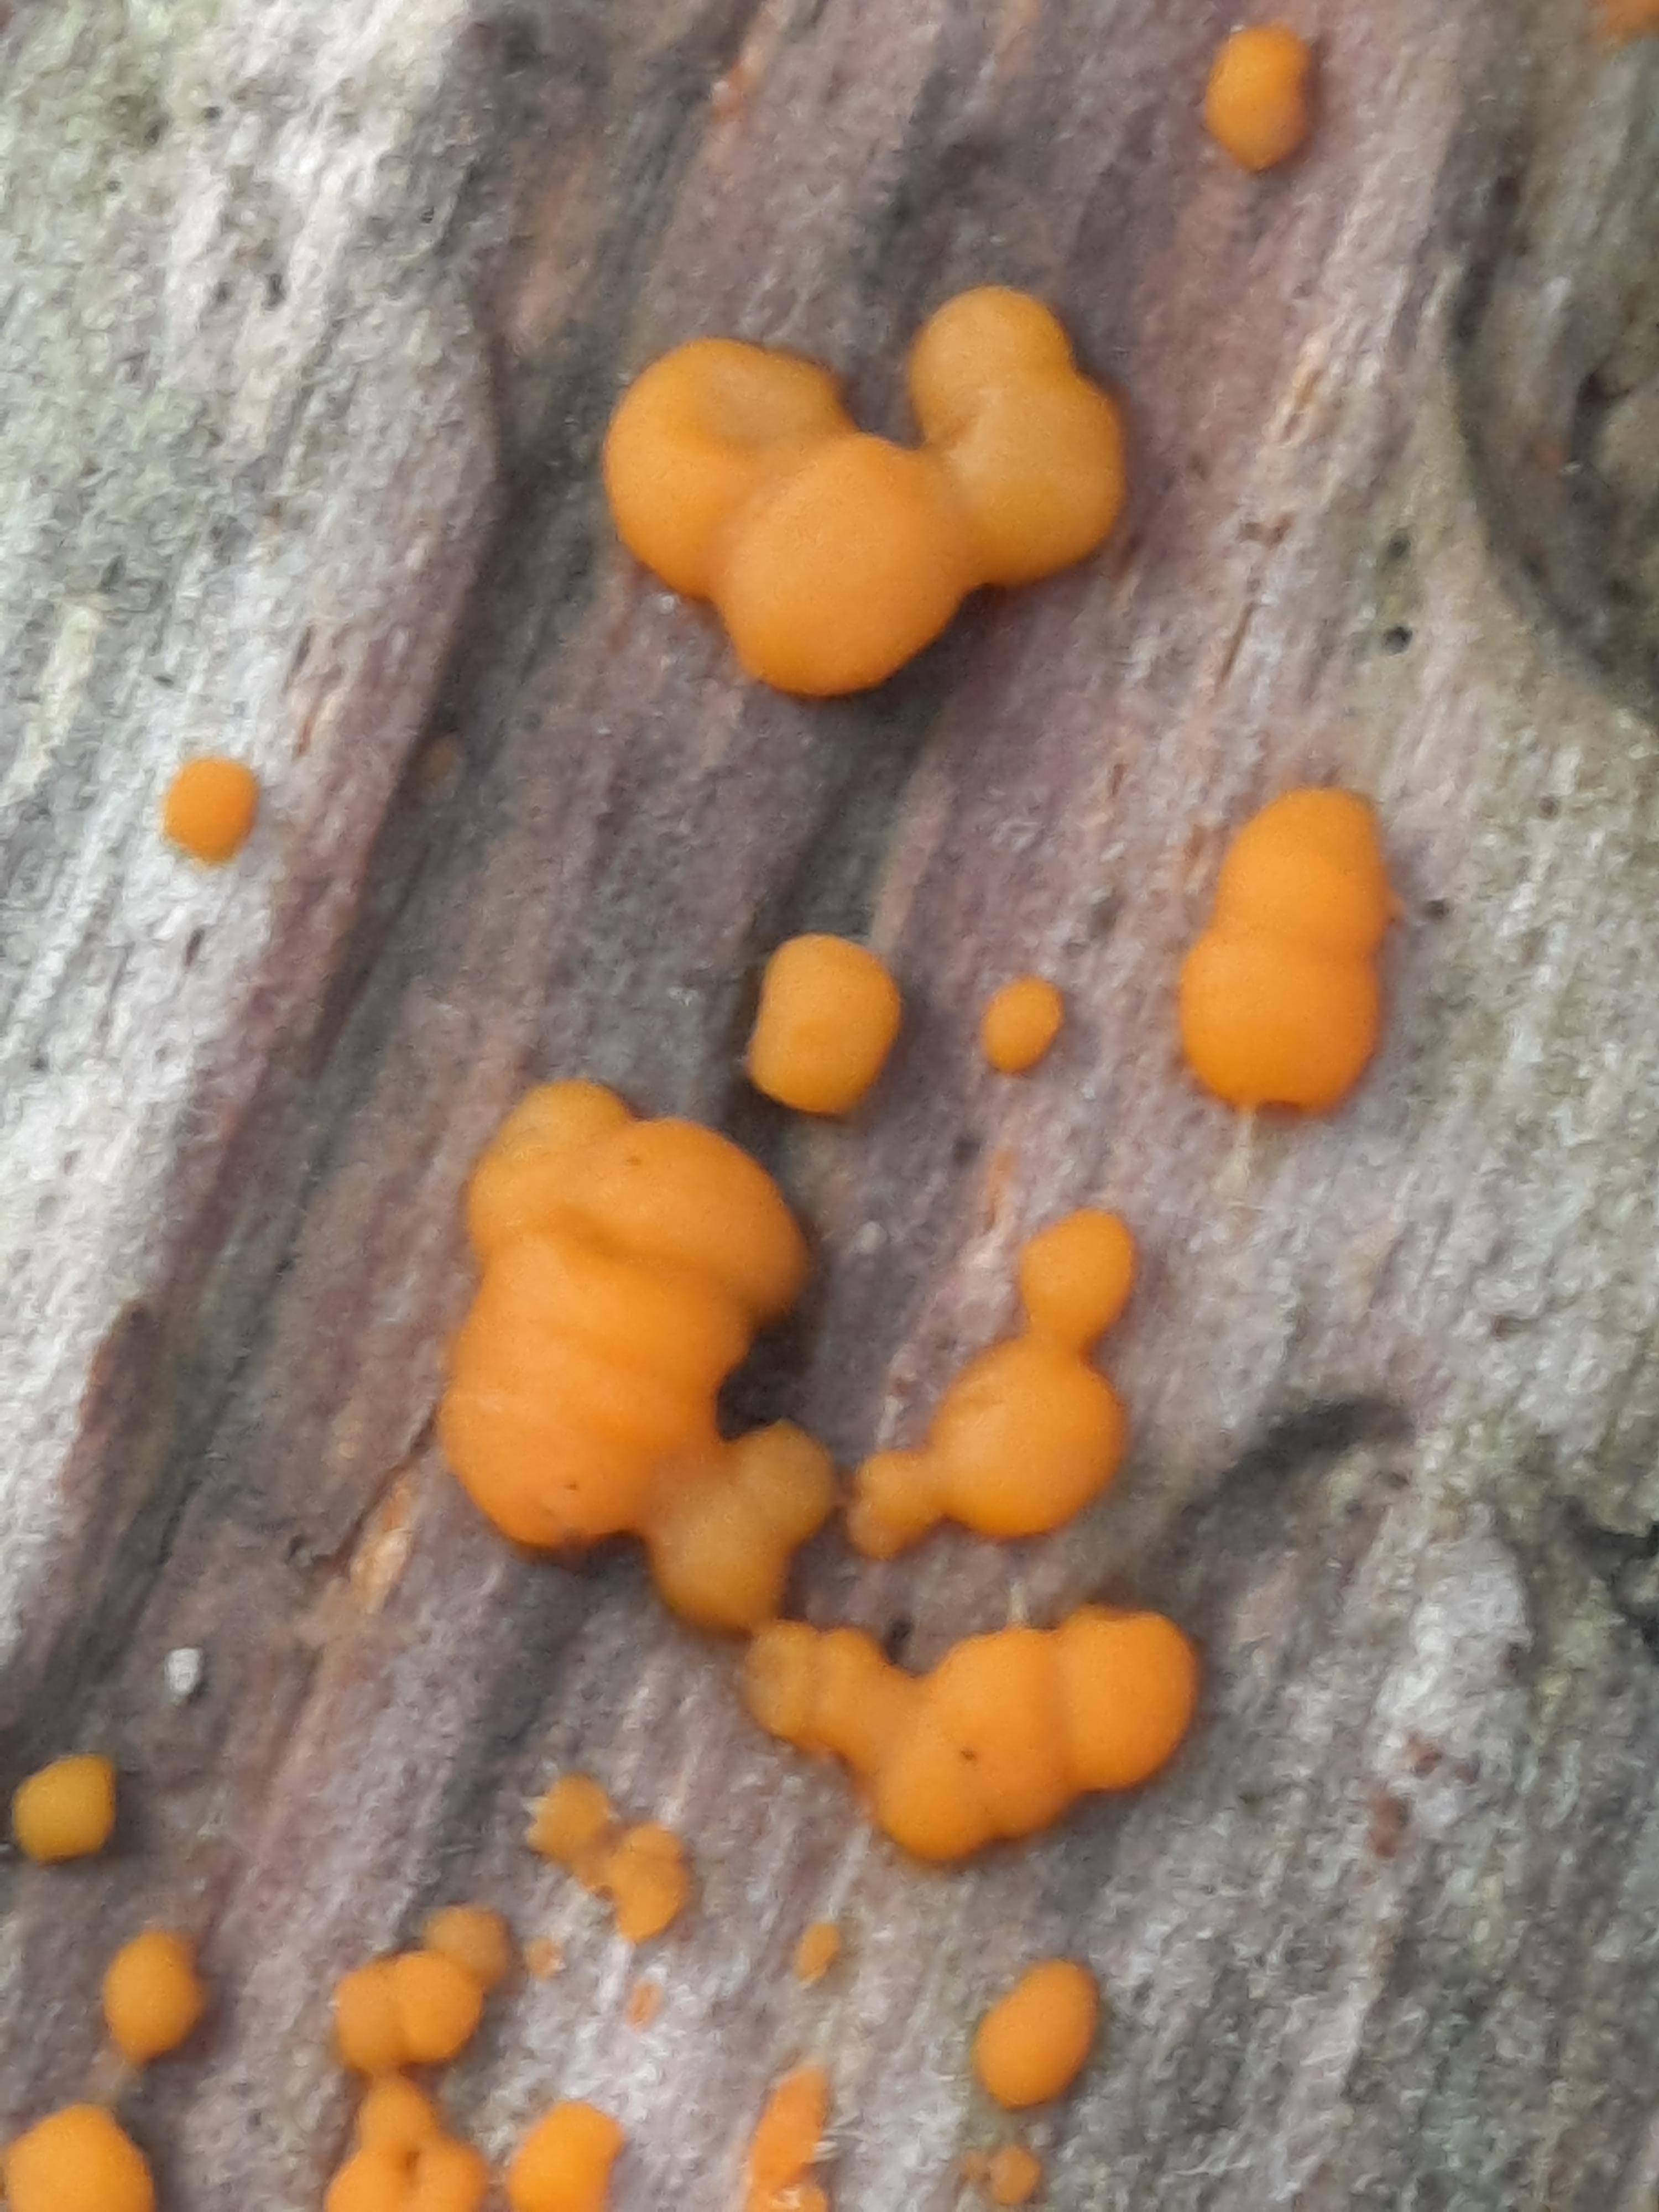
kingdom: Fungi
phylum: Basidiomycota
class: Dacrymycetes
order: Dacrymycetales
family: Dacrymycetaceae
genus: Dacrymyces
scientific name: Dacrymyces stillatus
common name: almindelig tåresvamp
